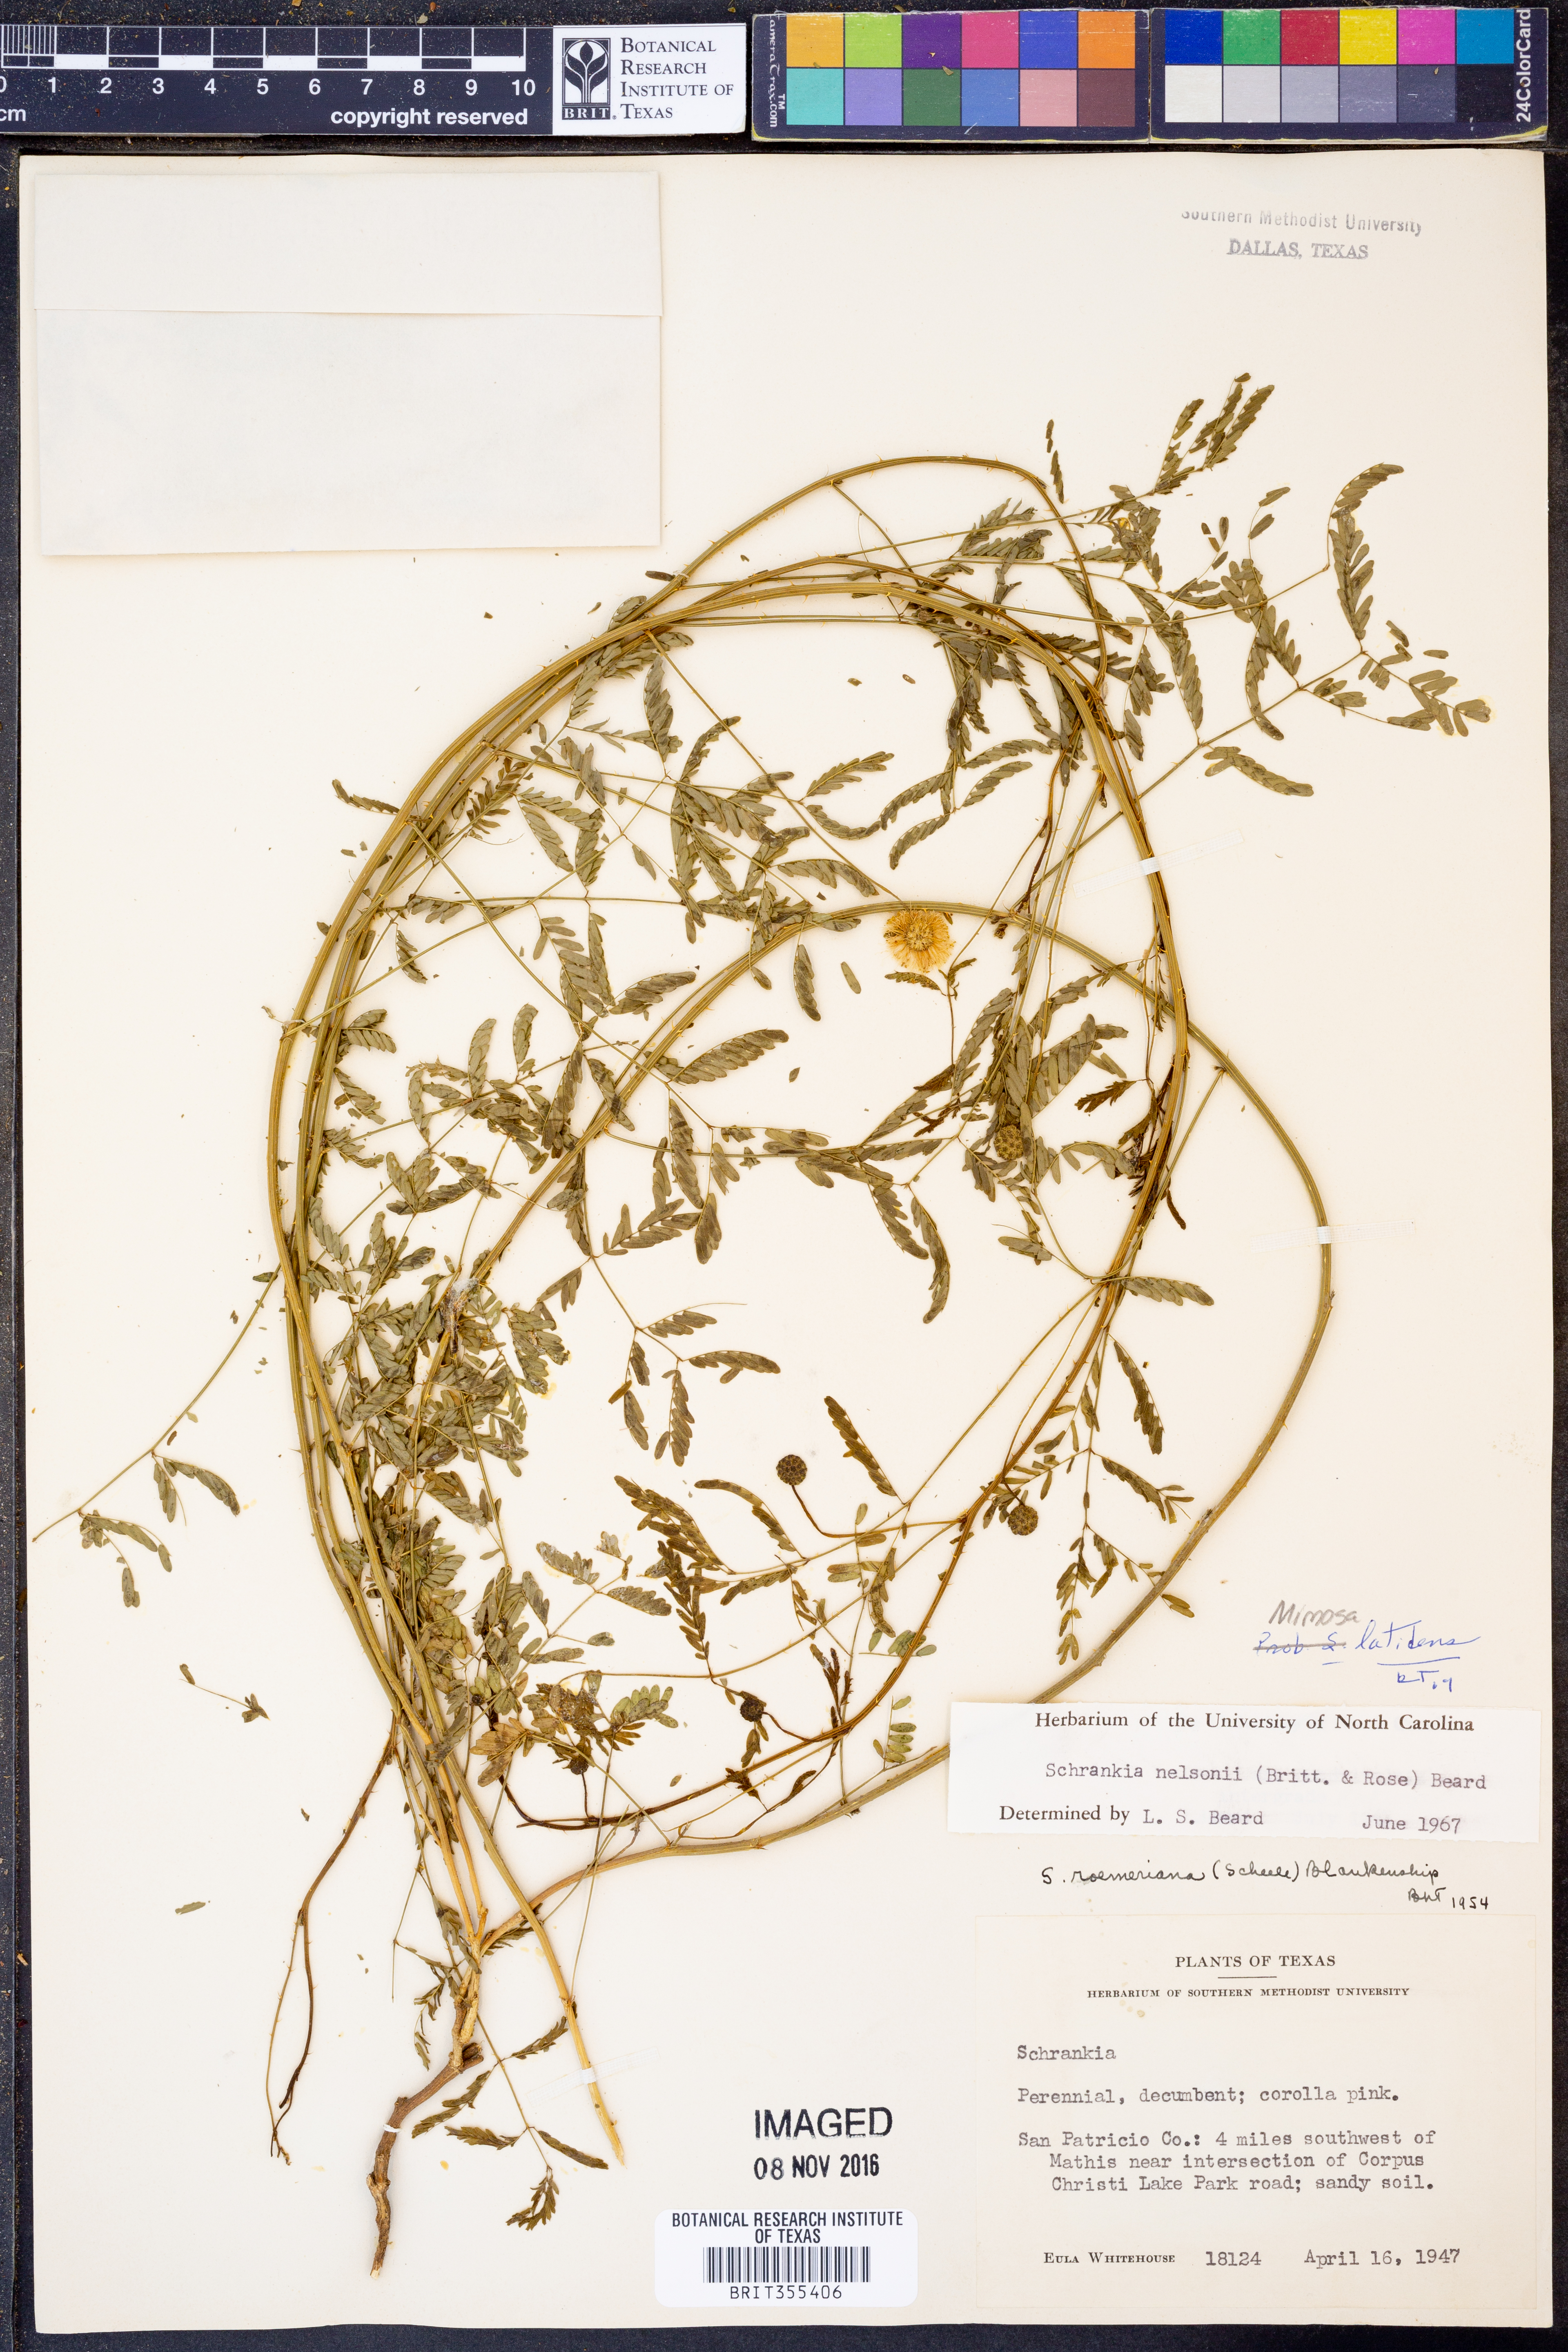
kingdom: Plantae
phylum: Tracheophyta
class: Magnoliopsida
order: Fabales
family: Fabaceae
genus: Mimosa
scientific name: Mimosa latidens
